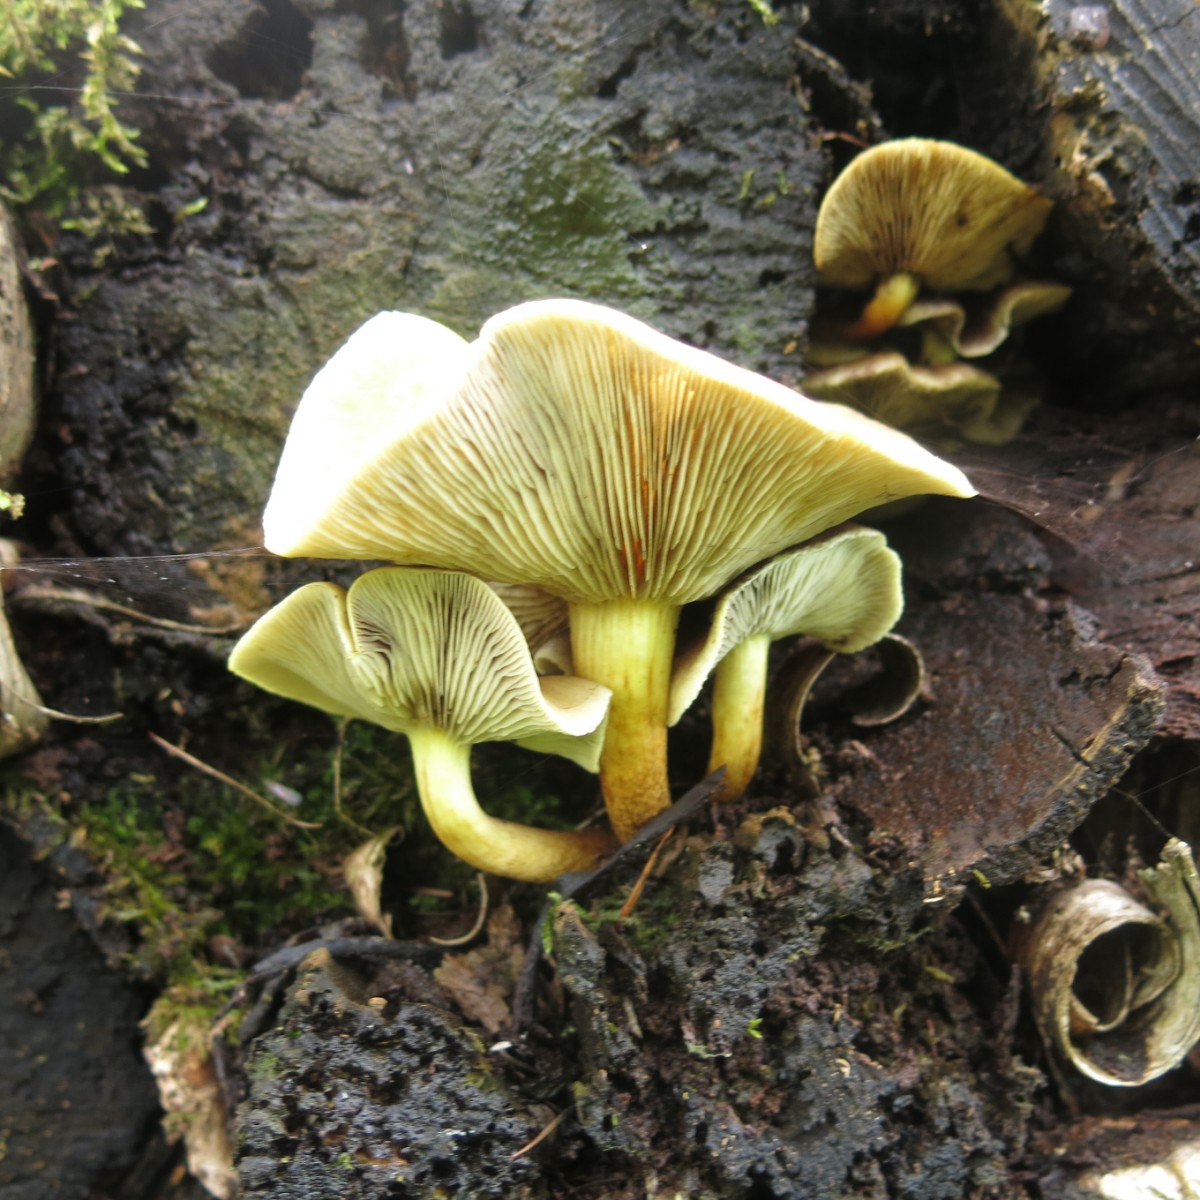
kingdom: Fungi
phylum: Basidiomycota
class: Agaricomycetes
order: Agaricales
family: Strophariaceae
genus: Hypholoma
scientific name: Hypholoma fasciculare
